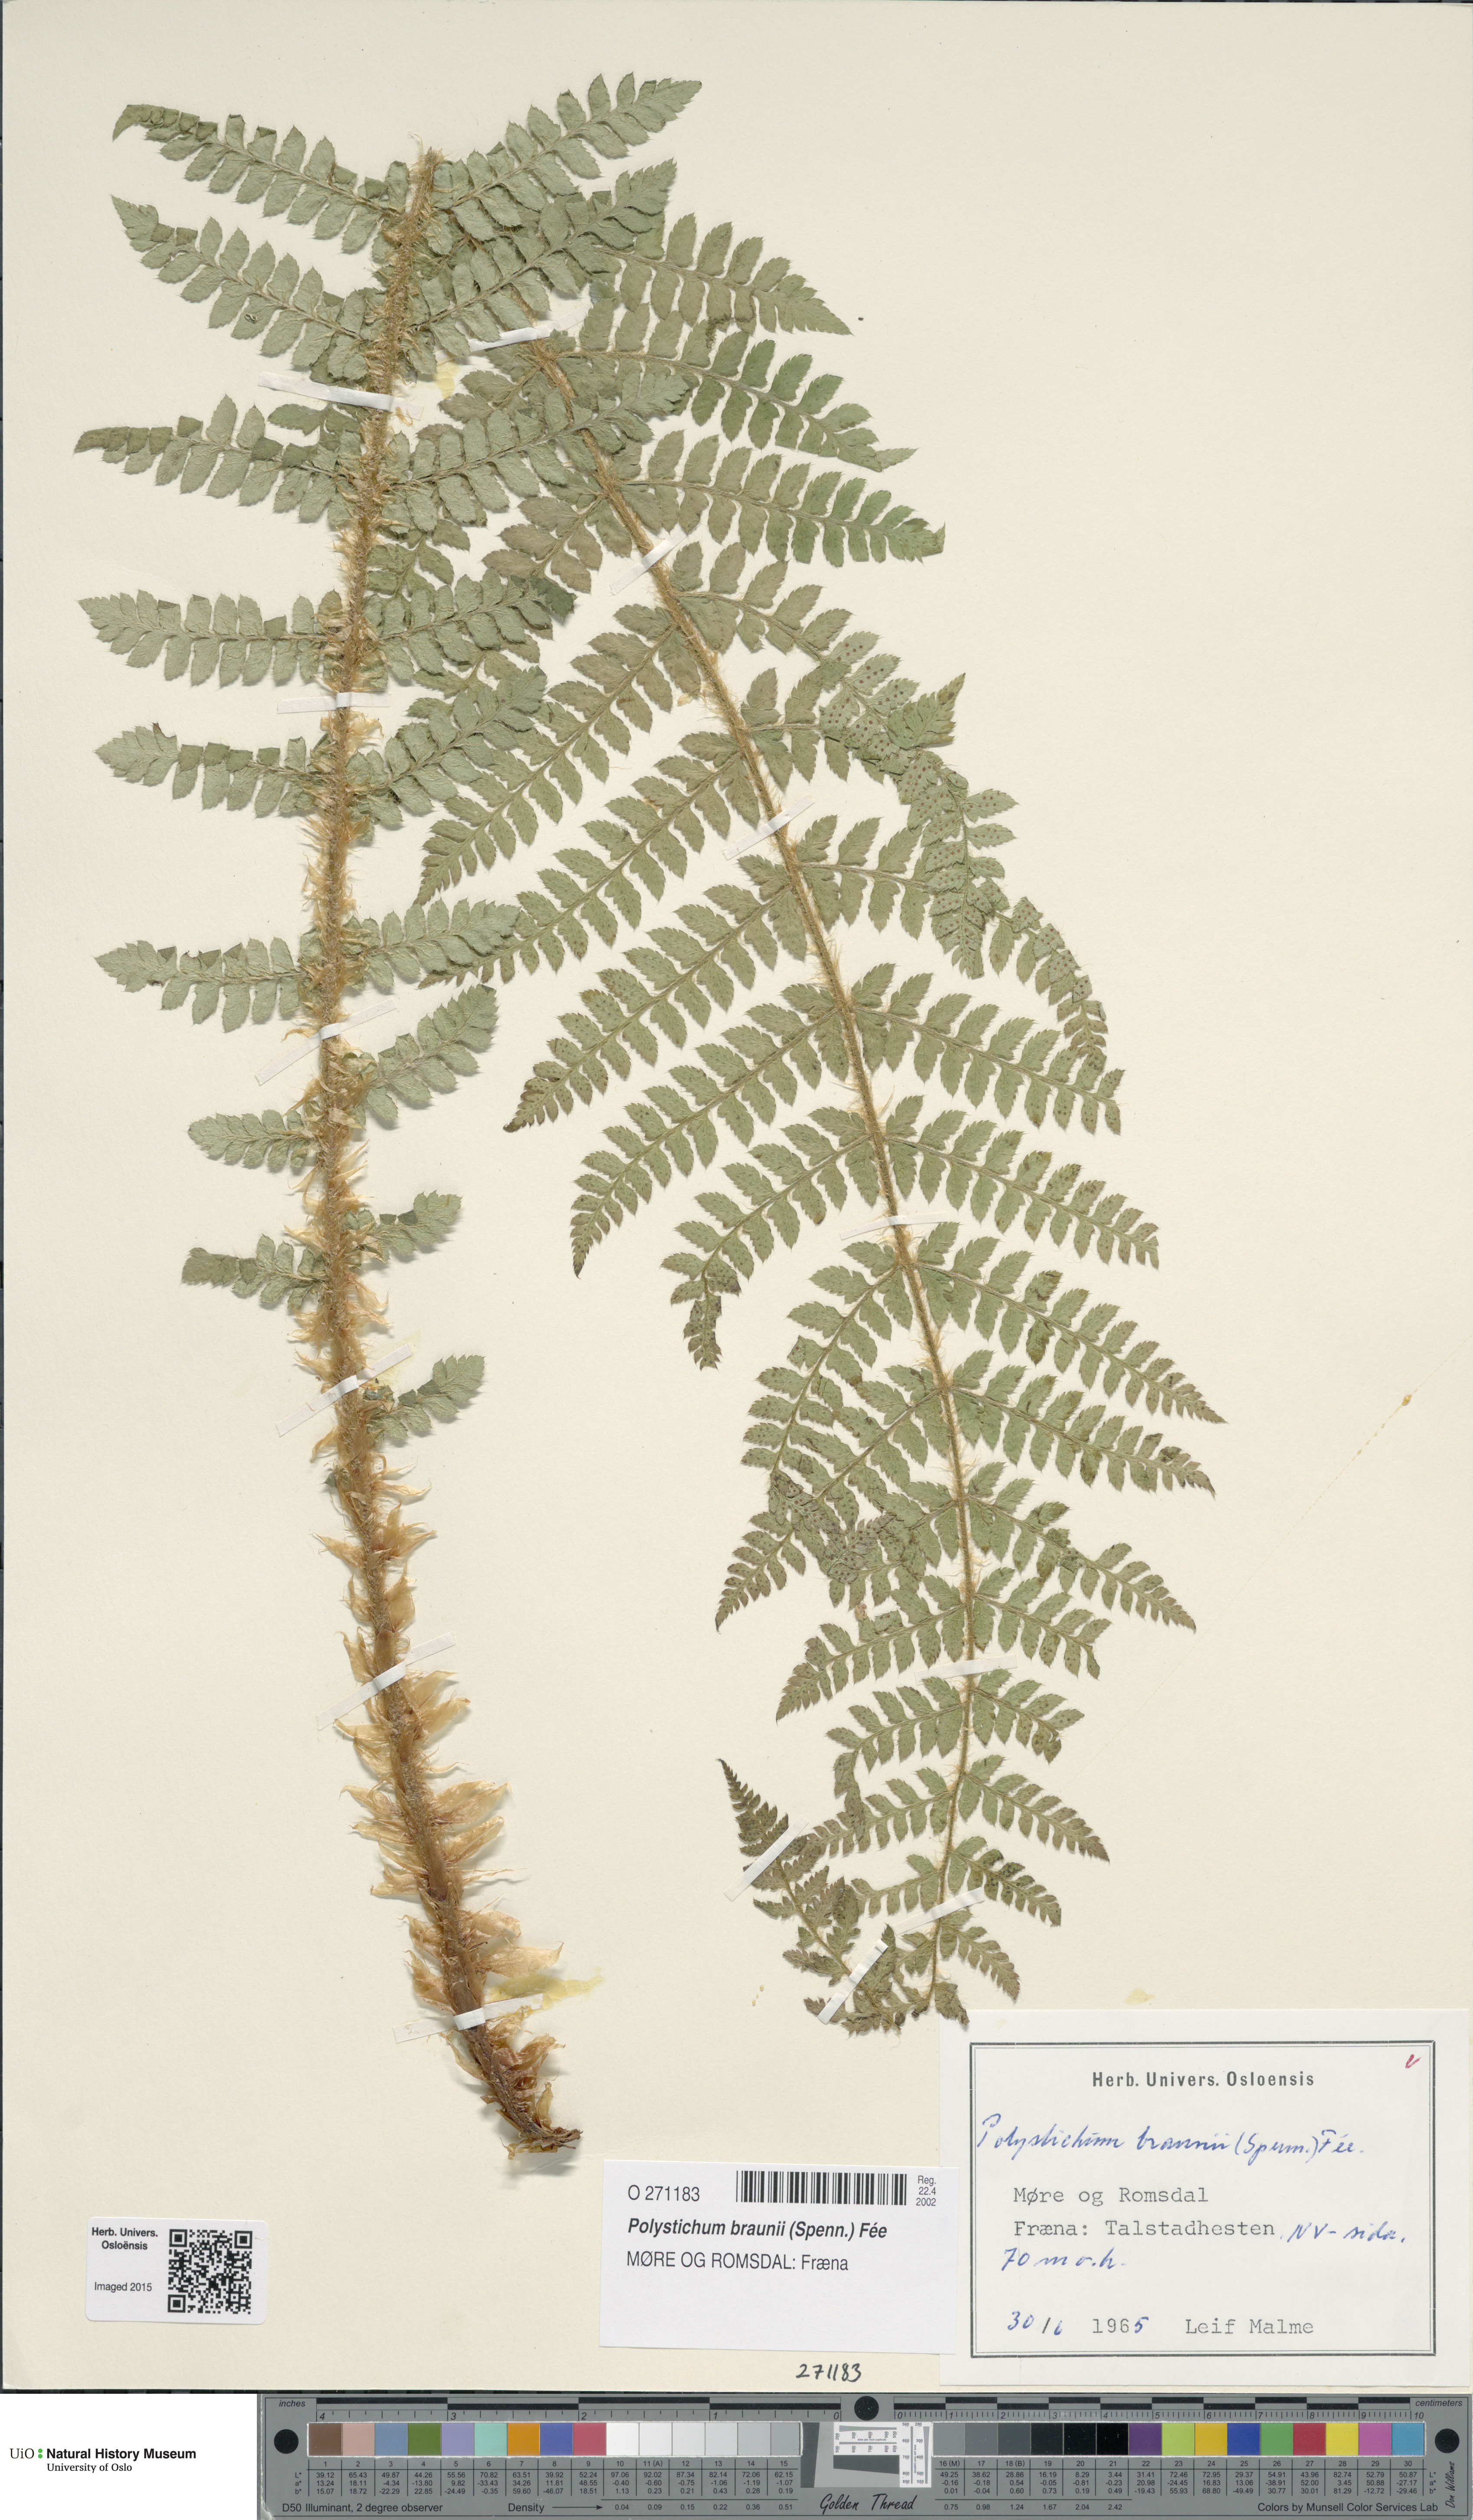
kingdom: Plantae
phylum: Tracheophyta
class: Polypodiopsida
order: Polypodiales
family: Dryopteridaceae
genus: Polystichum
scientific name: Polystichum braunii
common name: Braun's holly fern
